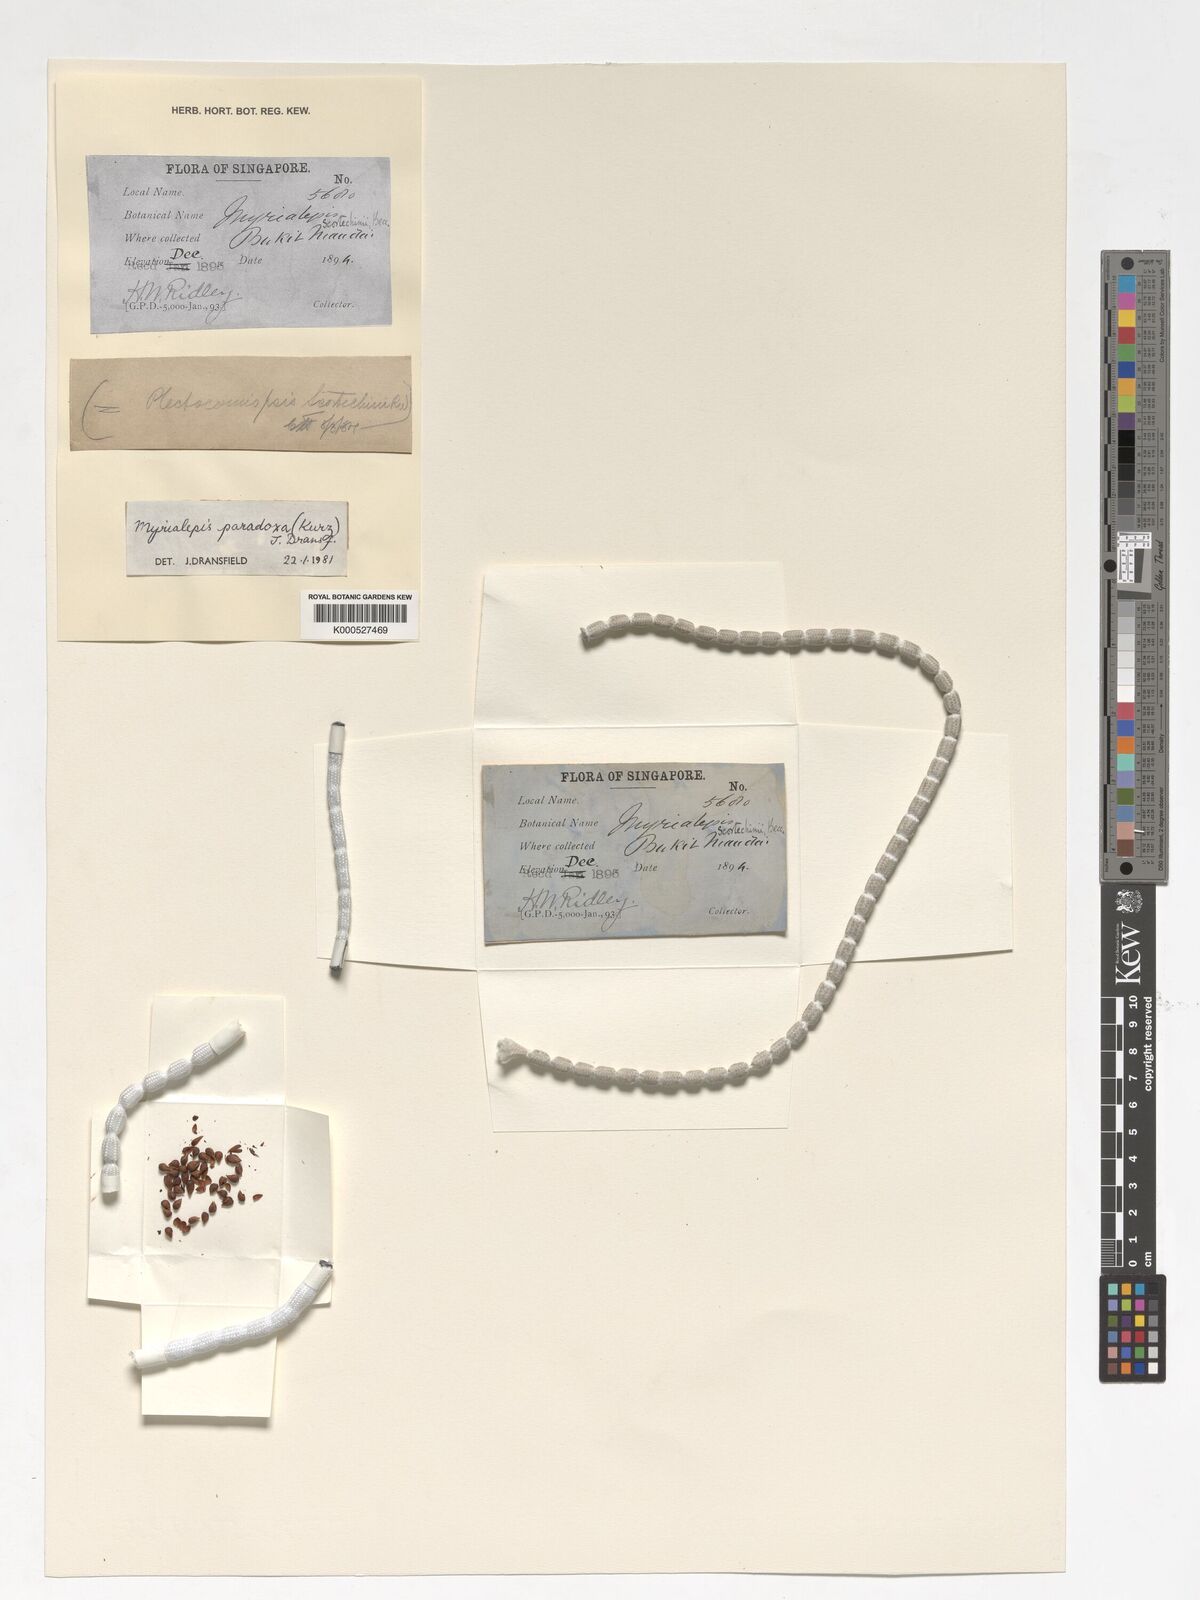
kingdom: Plantae
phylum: Tracheophyta
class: Liliopsida
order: Arecales
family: Arecaceae
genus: Myrialepis
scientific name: Myrialepis paradoxa
